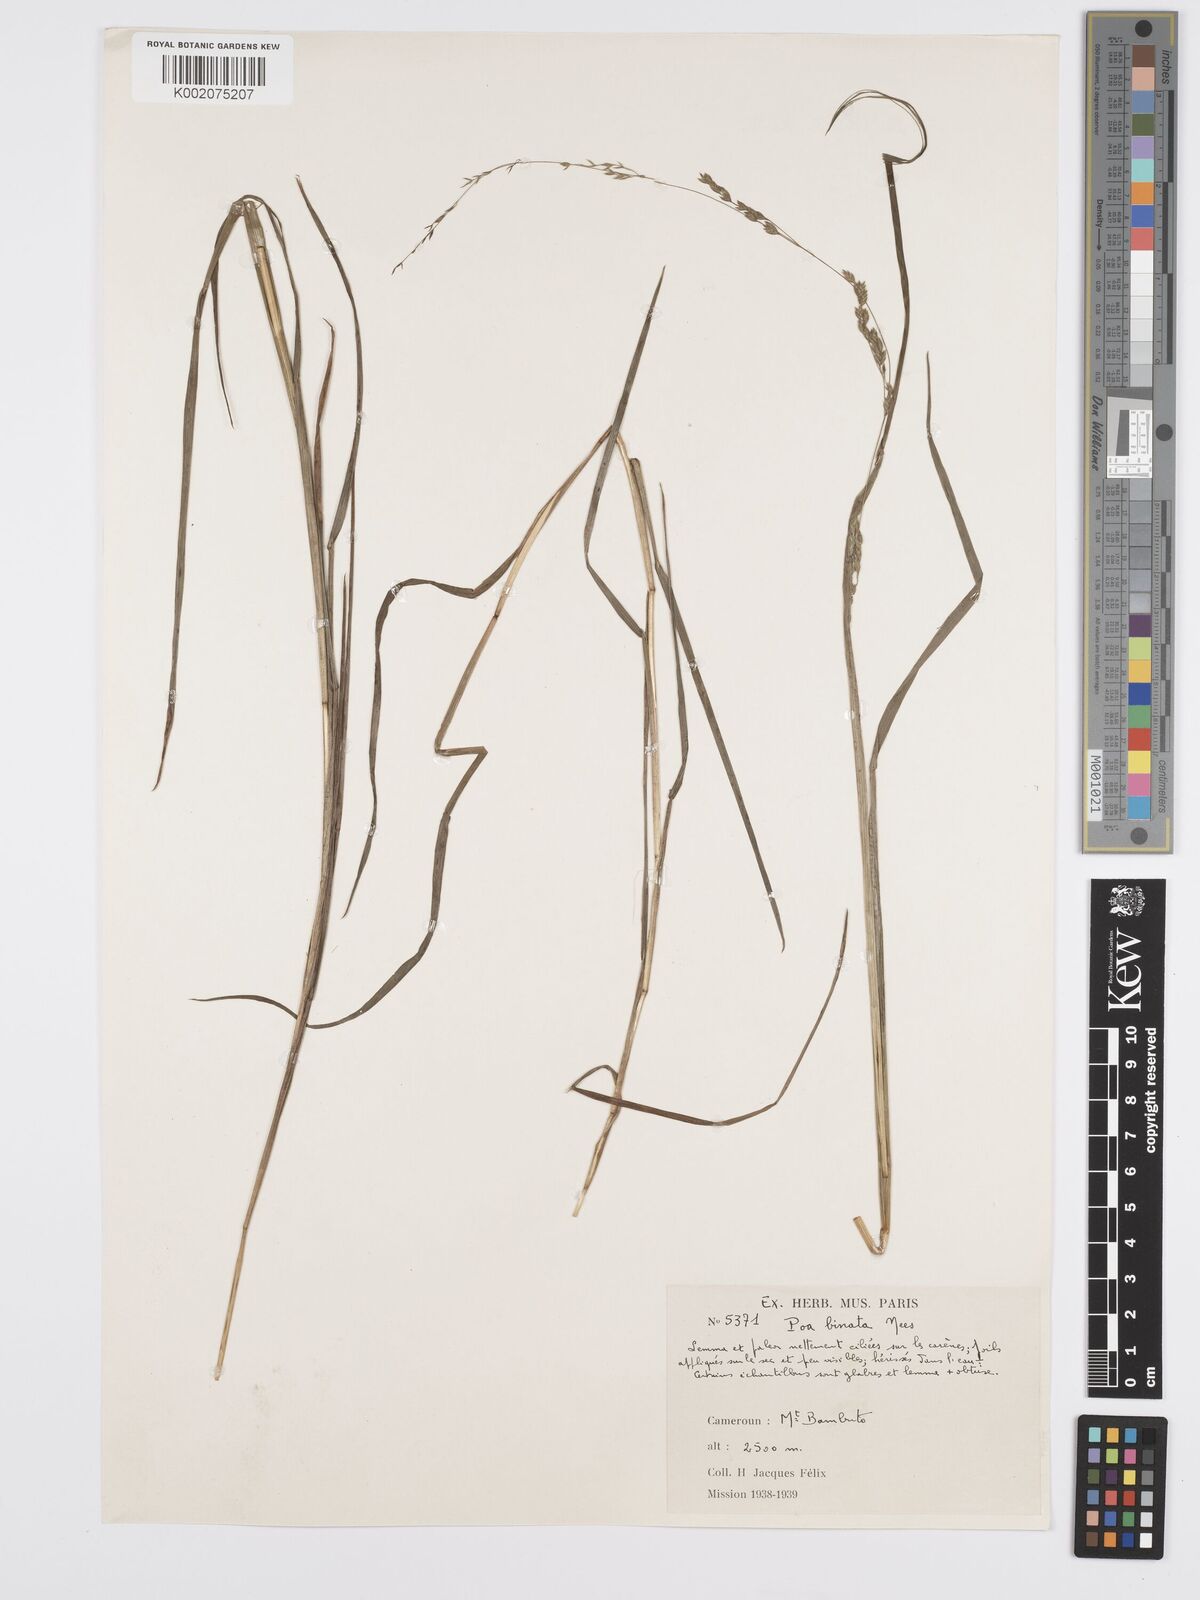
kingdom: Plantae
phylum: Tracheophyta
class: Liliopsida
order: Poales
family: Poaceae
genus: Poa
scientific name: Poa leptoclada
